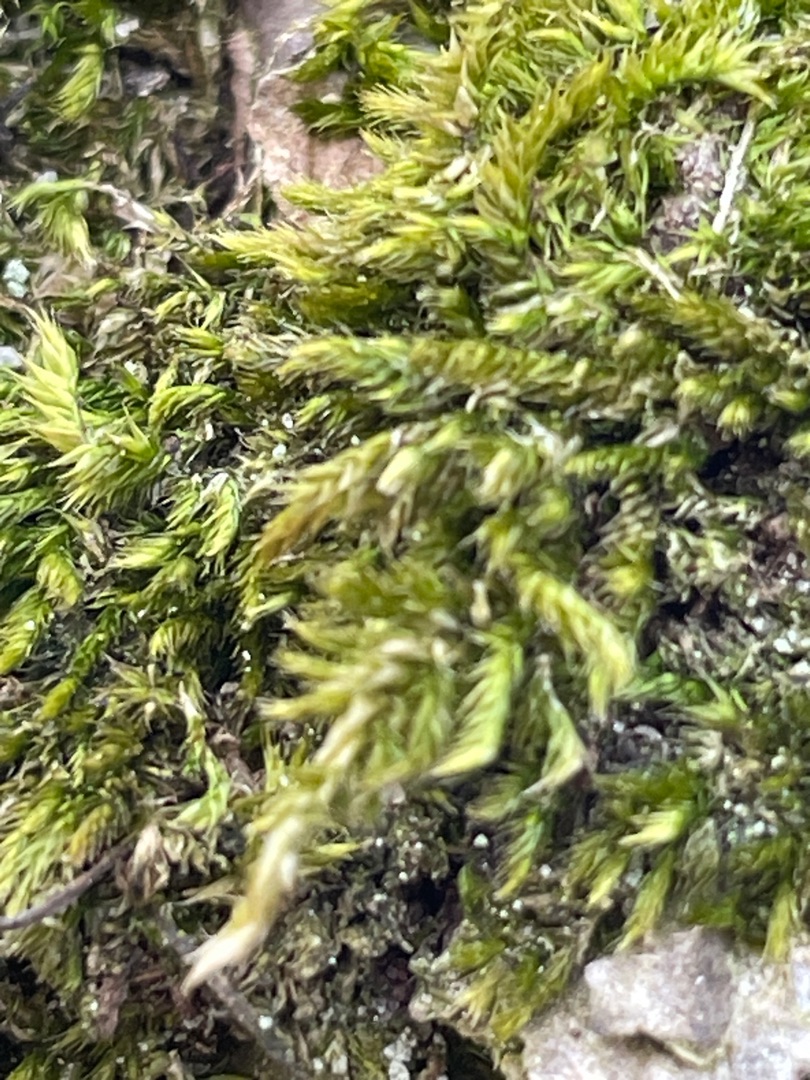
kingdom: Plantae
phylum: Bryophyta
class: Bryopsida
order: Hypnales
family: Hypnaceae
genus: Hypnum
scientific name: Hypnum
